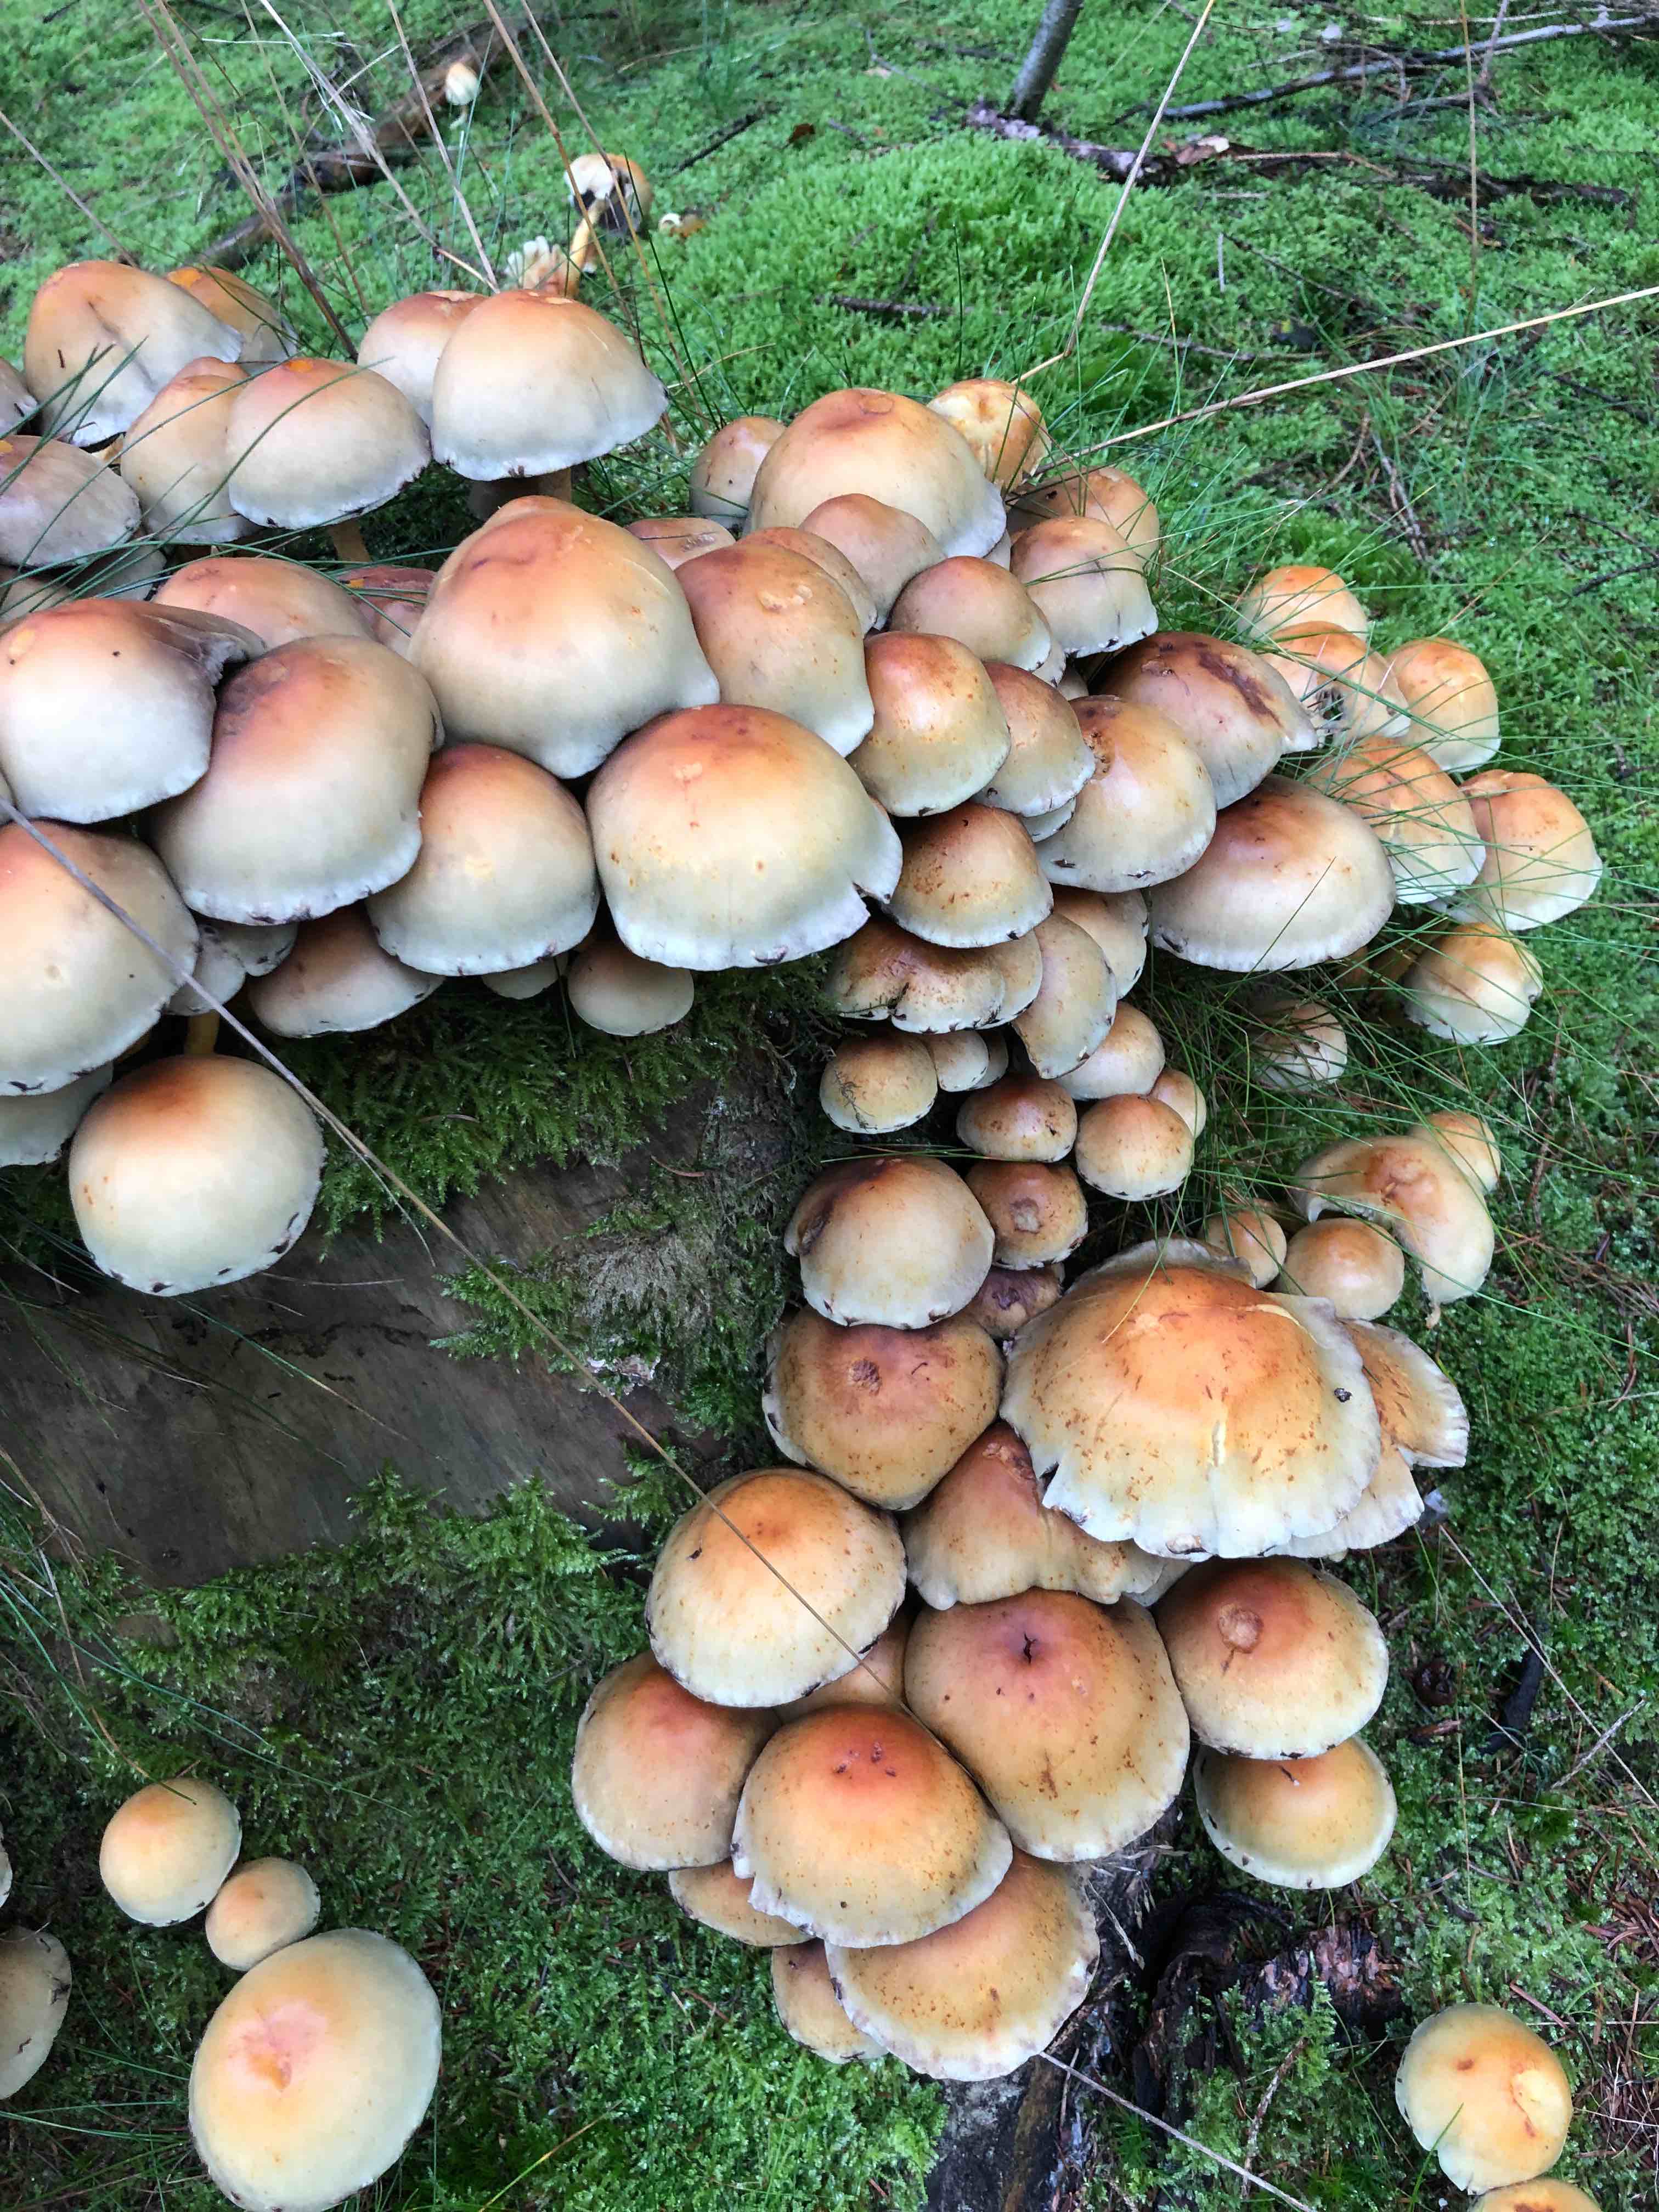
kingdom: Fungi
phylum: Basidiomycota
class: Agaricomycetes
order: Agaricales
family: Strophariaceae
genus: Hypholoma
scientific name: Hypholoma fasciculare
